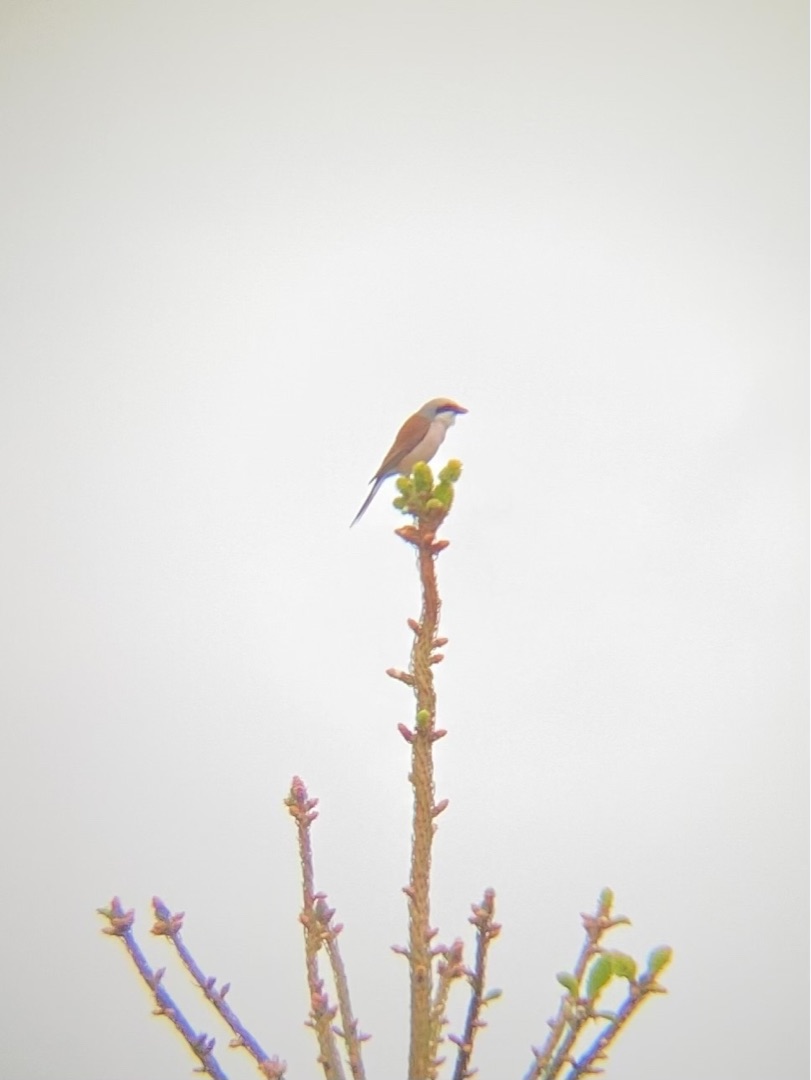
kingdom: Animalia
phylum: Chordata
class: Aves
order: Passeriformes
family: Laniidae
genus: Lanius
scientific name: Lanius collurio
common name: Rødrygget tornskade
